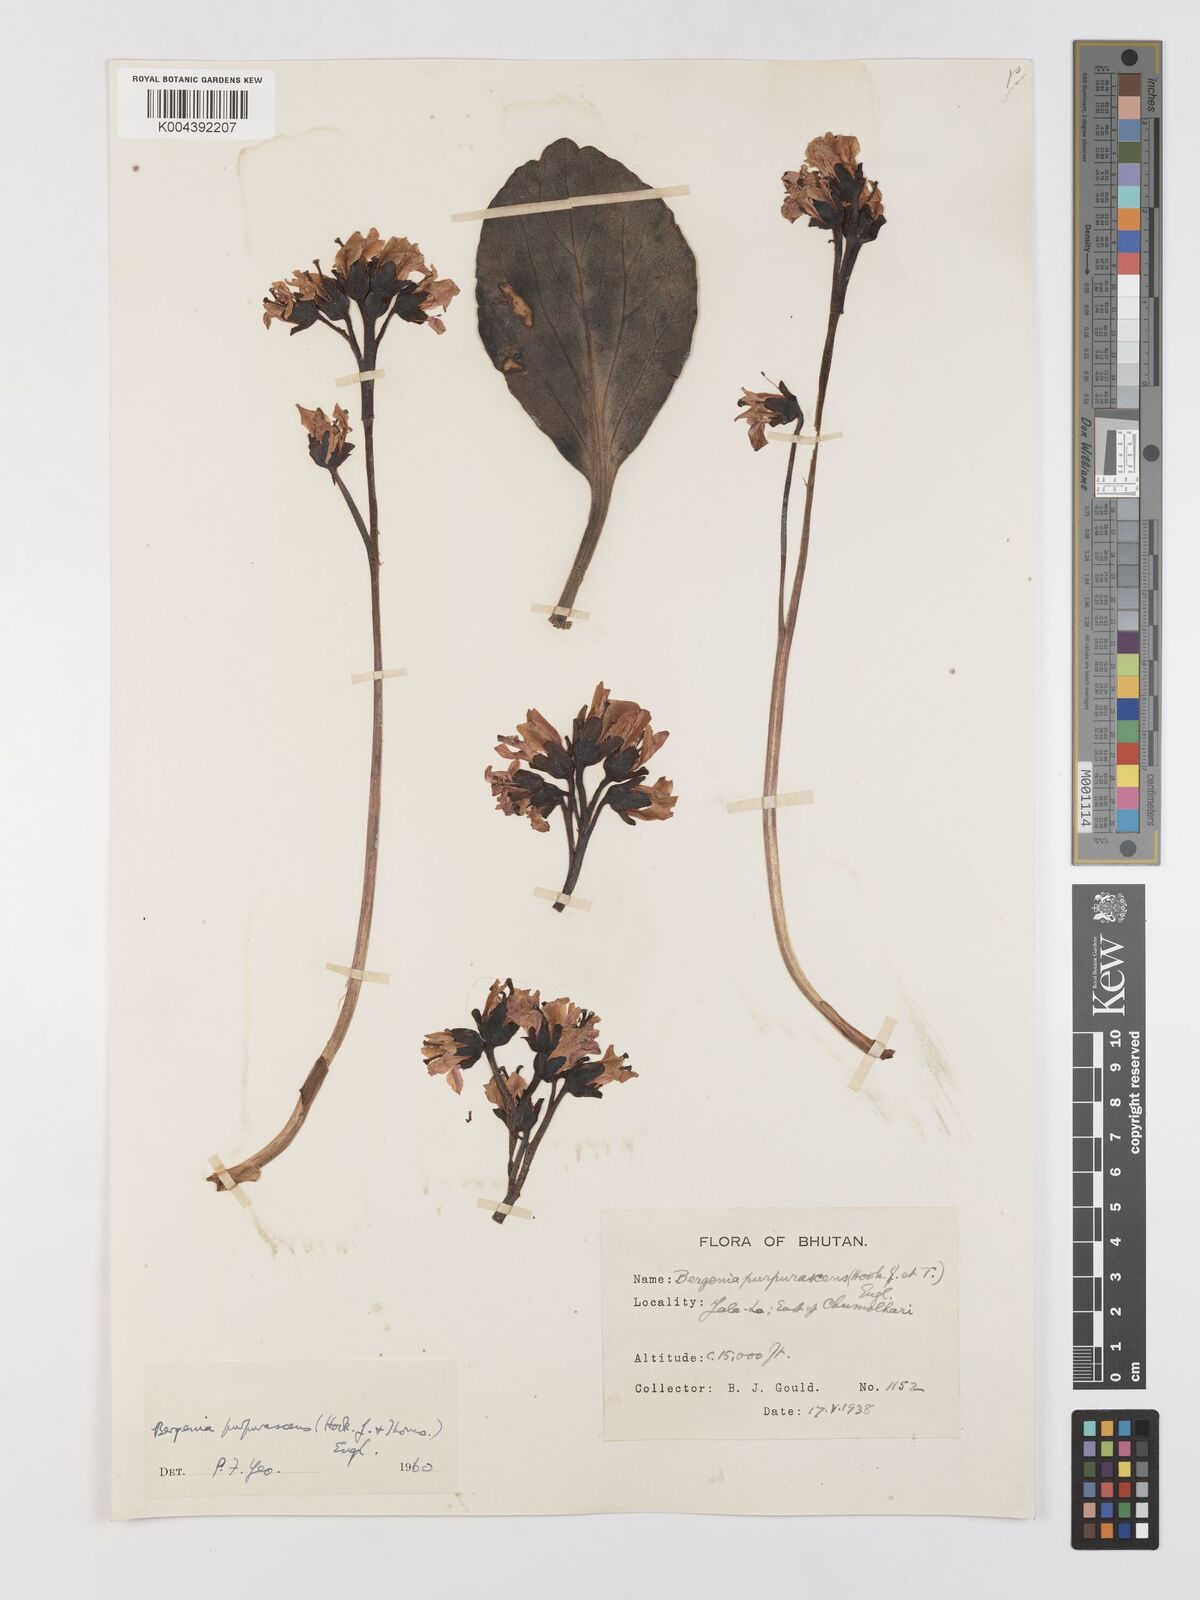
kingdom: Plantae
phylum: Tracheophyta
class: Magnoliopsida
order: Saxifragales
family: Saxifragaceae
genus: Bergenia
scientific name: Bergenia purpurascens
